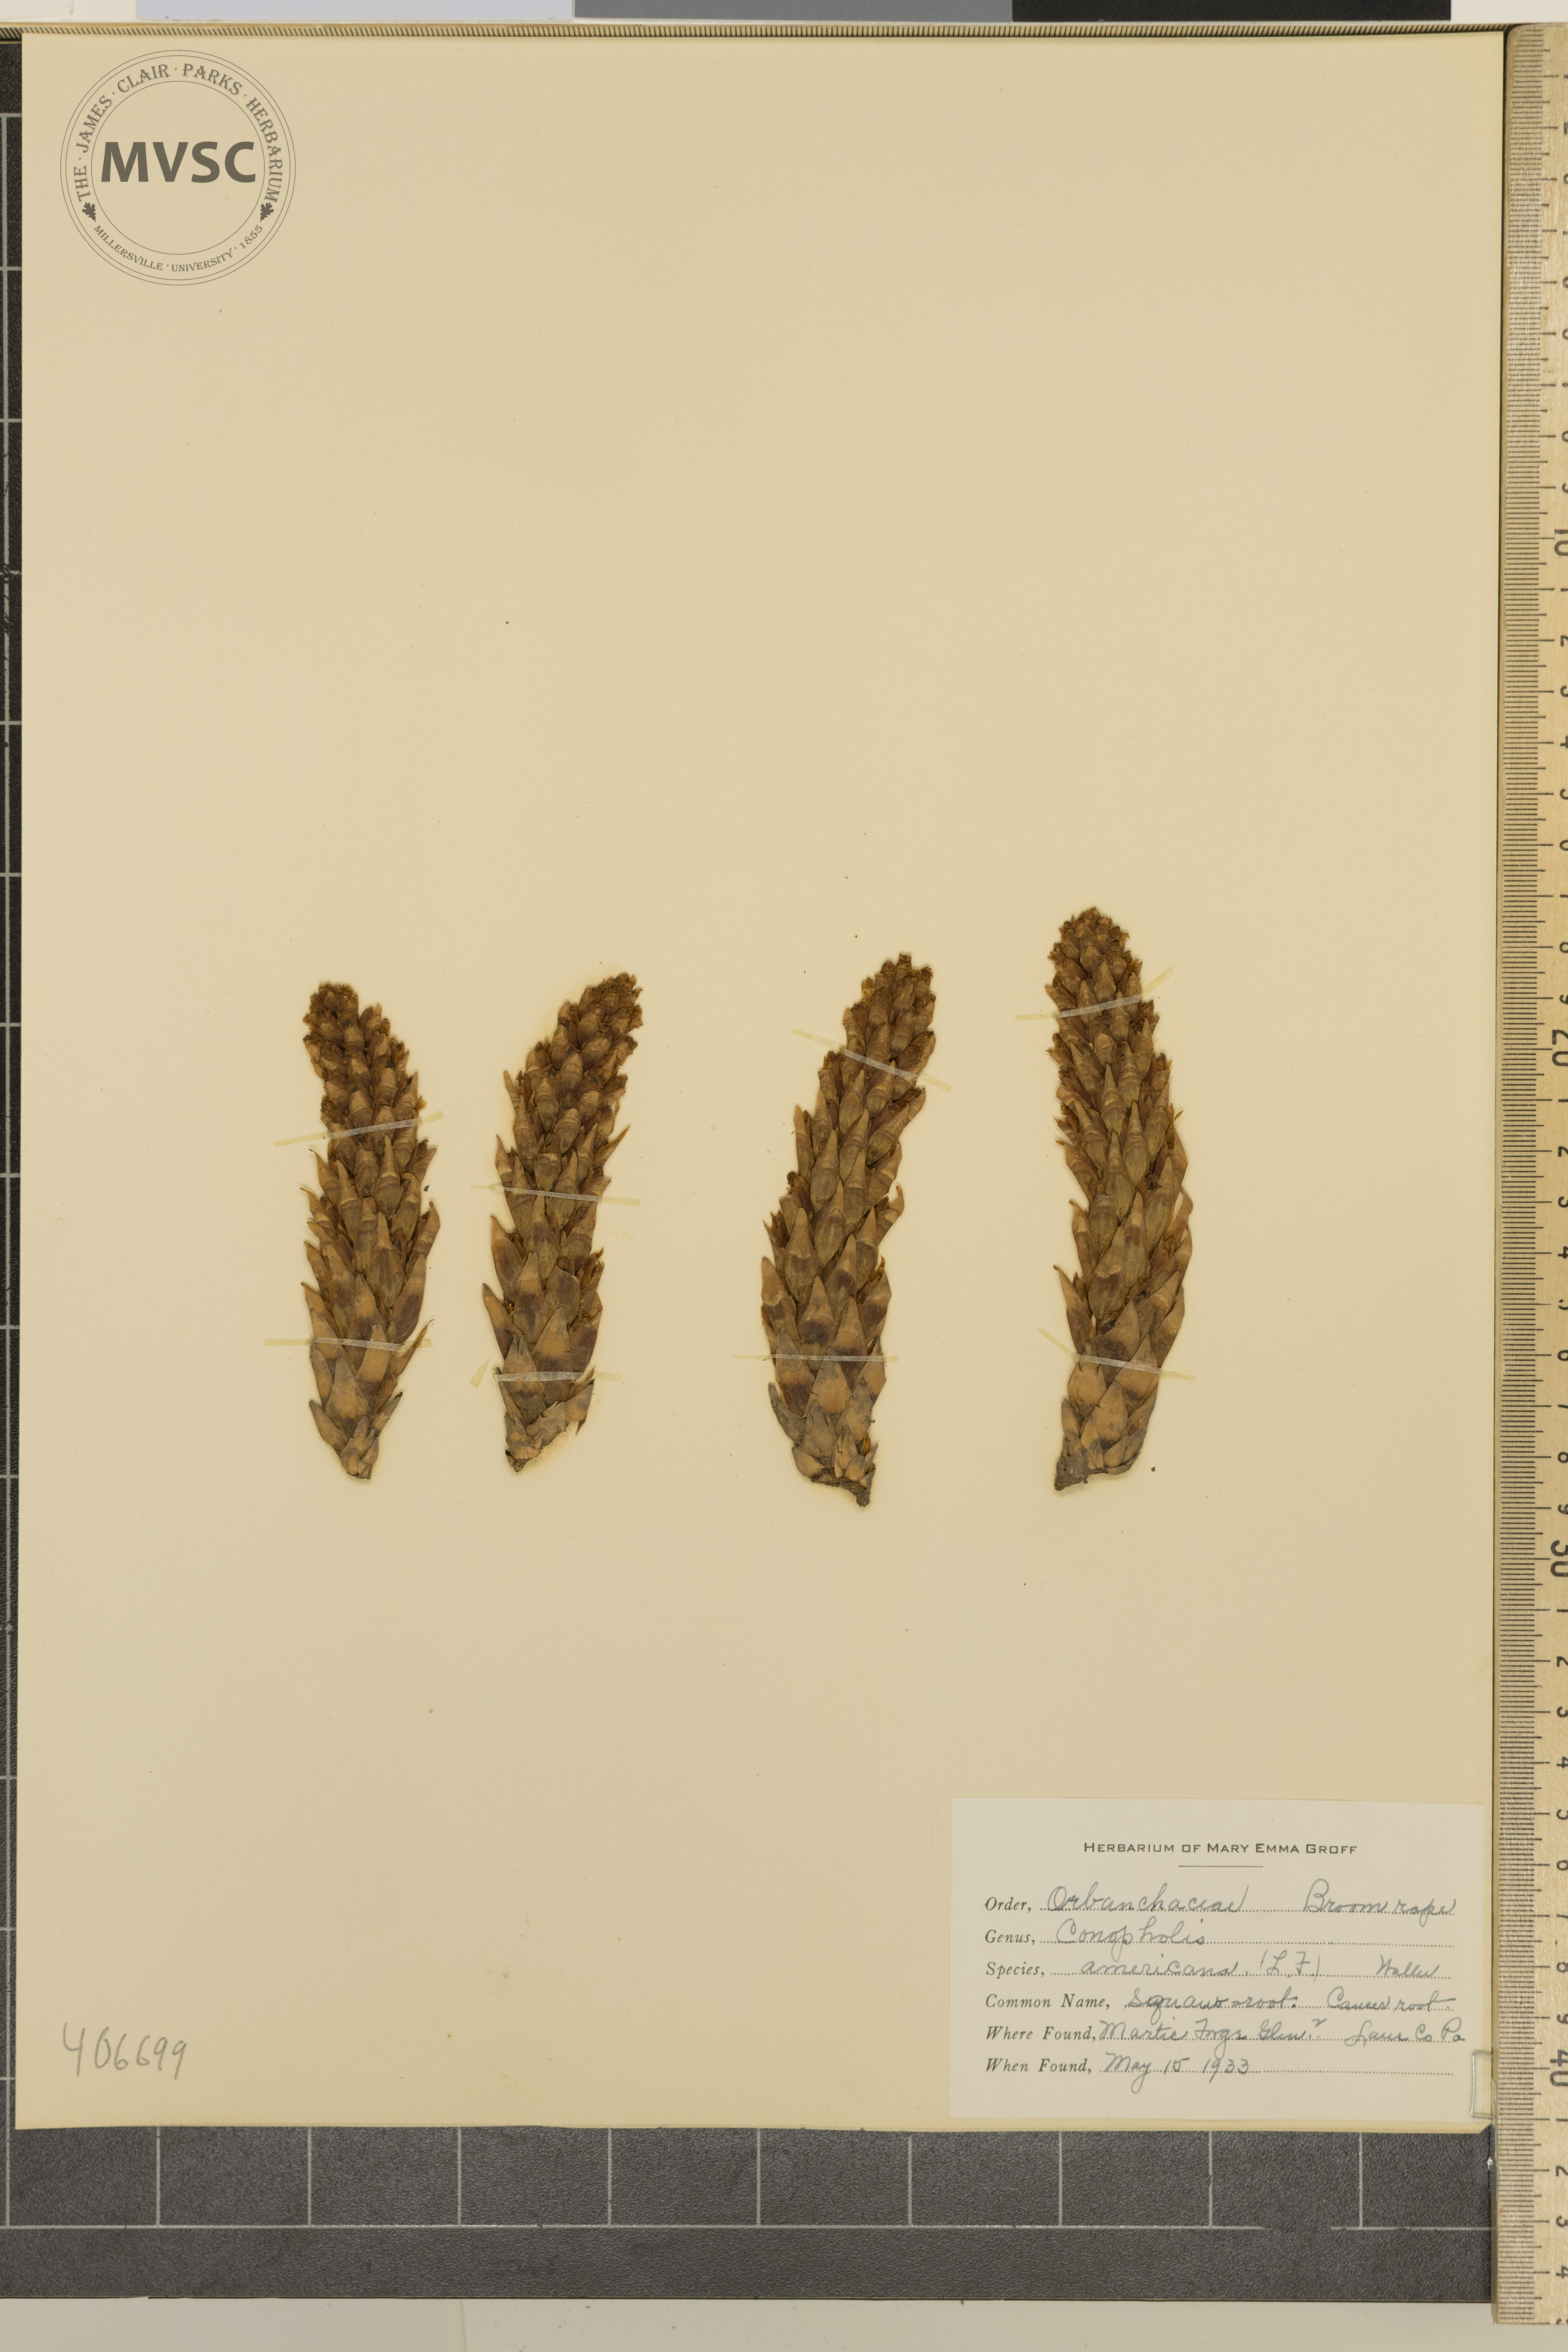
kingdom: Plantae
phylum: Tracheophyta
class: Magnoliopsida
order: Lamiales
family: Orobanchaceae
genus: Conopholis
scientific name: Conopholis americana
